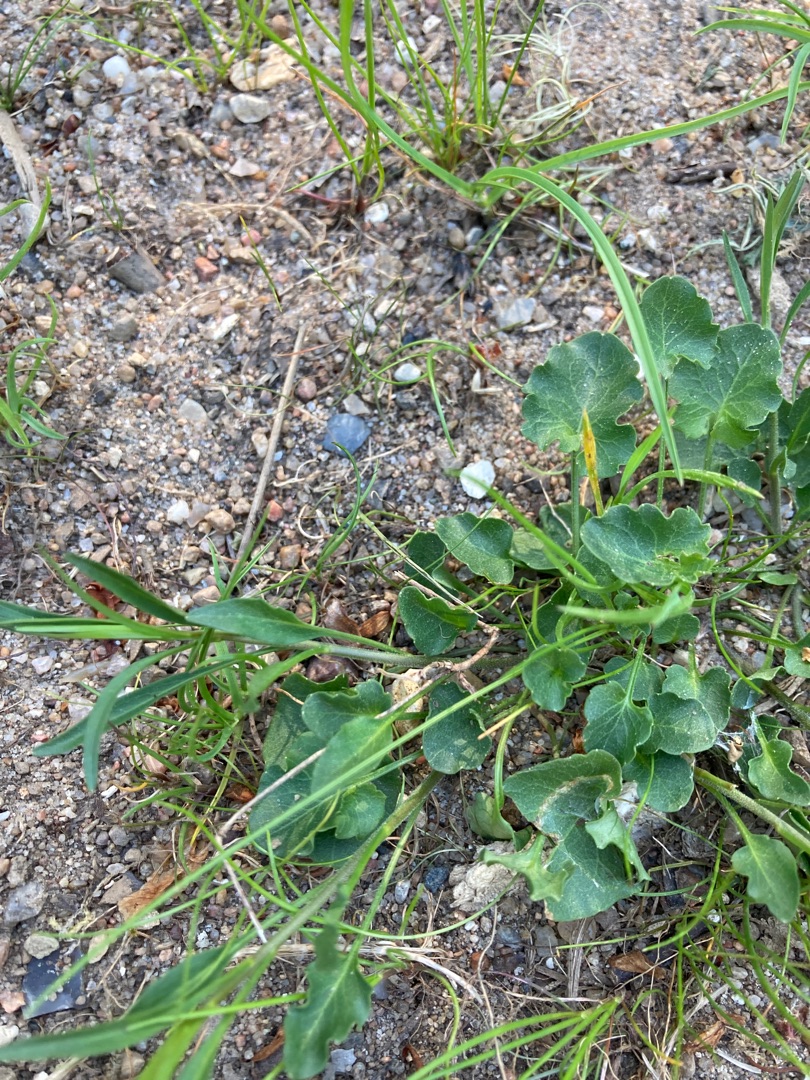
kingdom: Plantae
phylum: Tracheophyta
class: Magnoliopsida
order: Asterales
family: Campanulaceae
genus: Campanula
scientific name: Campanula rotundifolia
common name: Liden klokke
